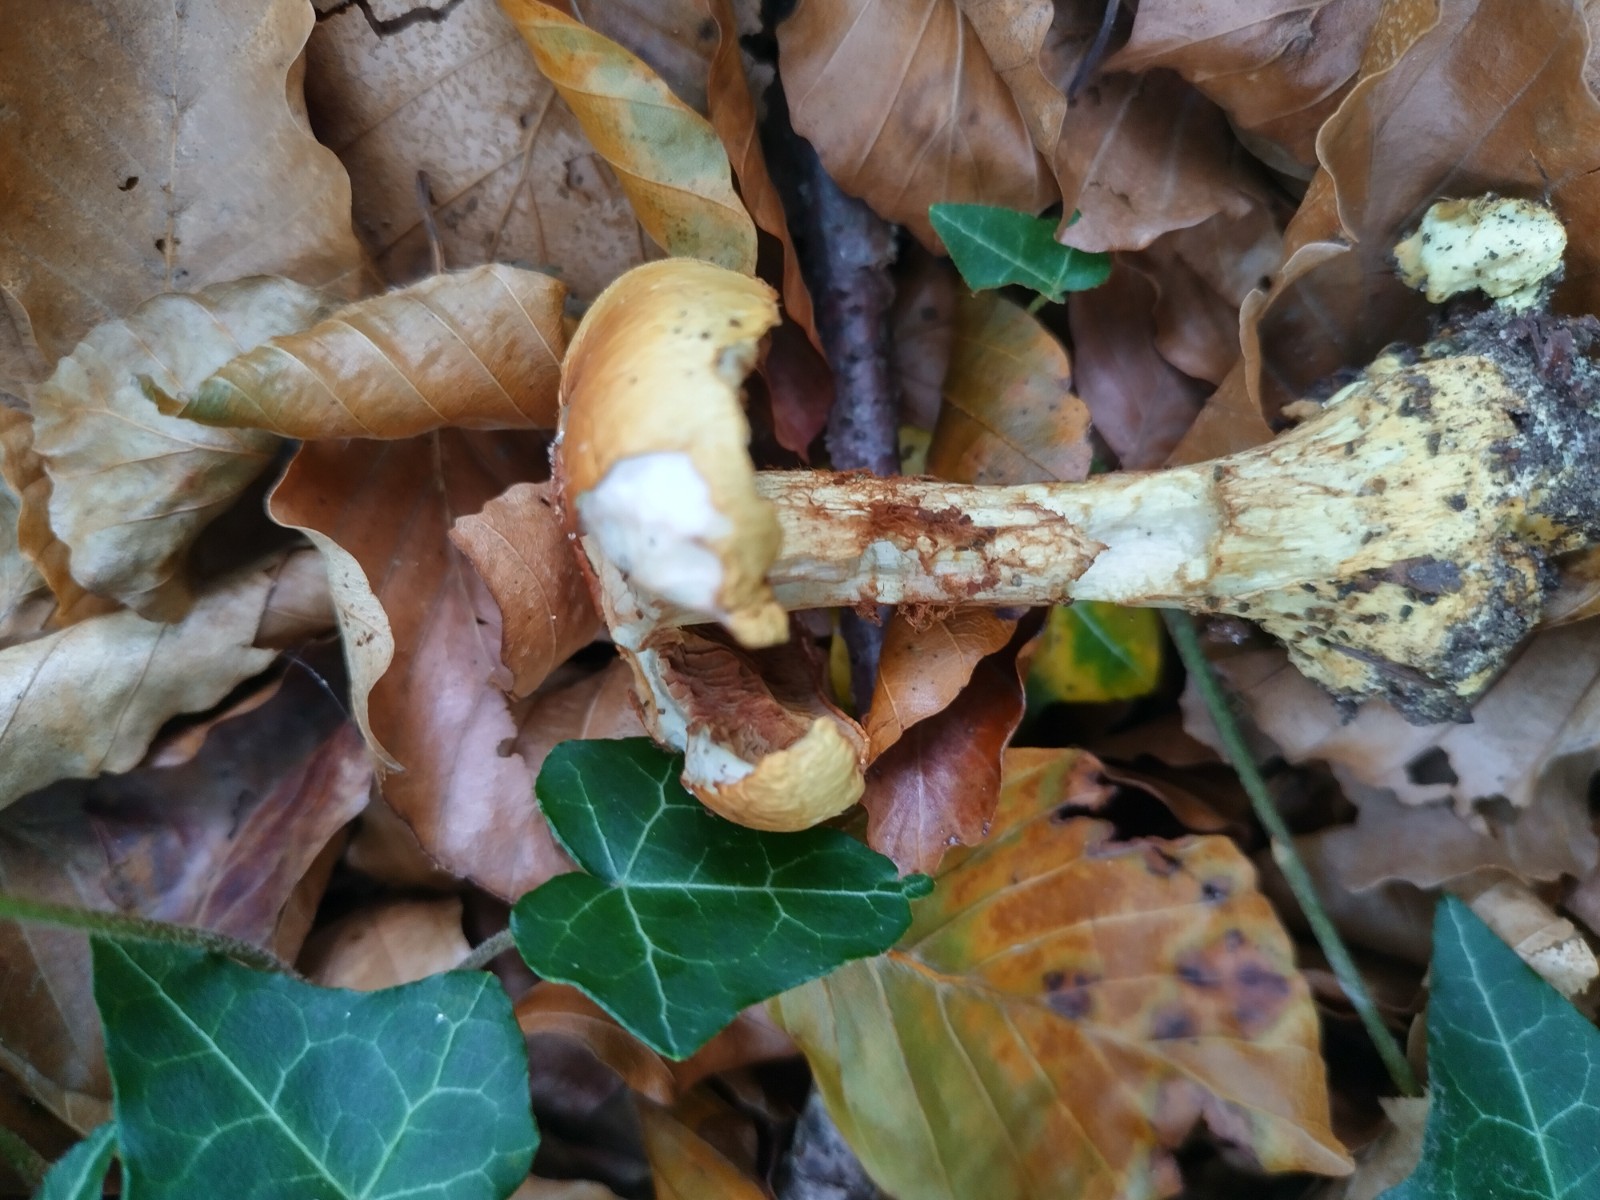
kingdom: Fungi
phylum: Basidiomycota
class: Agaricomycetes
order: Agaricales
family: Cortinariaceae
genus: Calonarius
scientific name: Calonarius elegantissimus
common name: orangegylden slørhat
